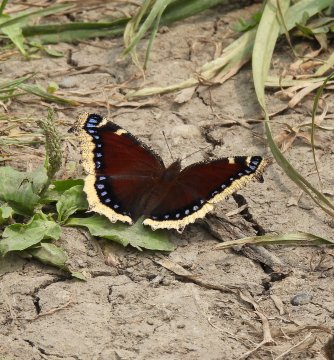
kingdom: Animalia
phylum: Arthropoda
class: Insecta
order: Lepidoptera
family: Nymphalidae
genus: Nymphalis
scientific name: Nymphalis antiopa
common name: Mourning Cloak
